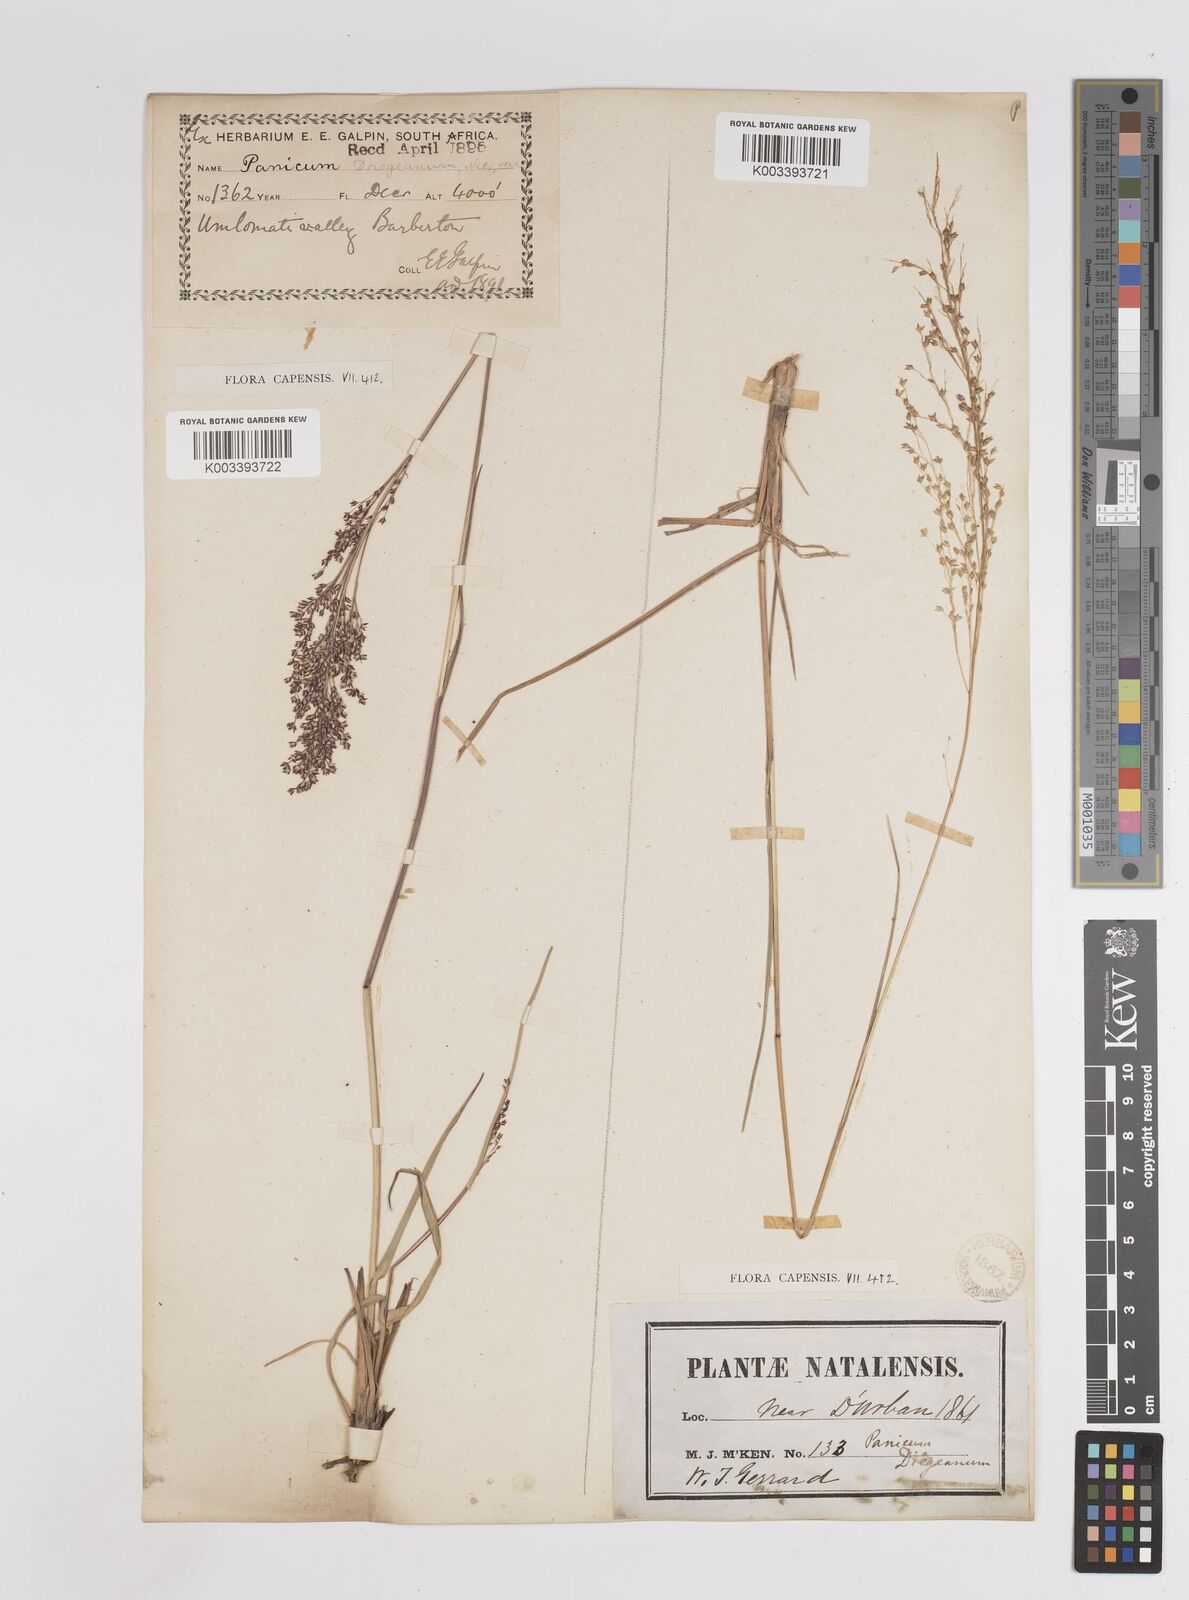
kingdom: Plantae
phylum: Tracheophyta
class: Liliopsida
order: Poales
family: Poaceae
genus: Panicum
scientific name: Panicum dregeanum
